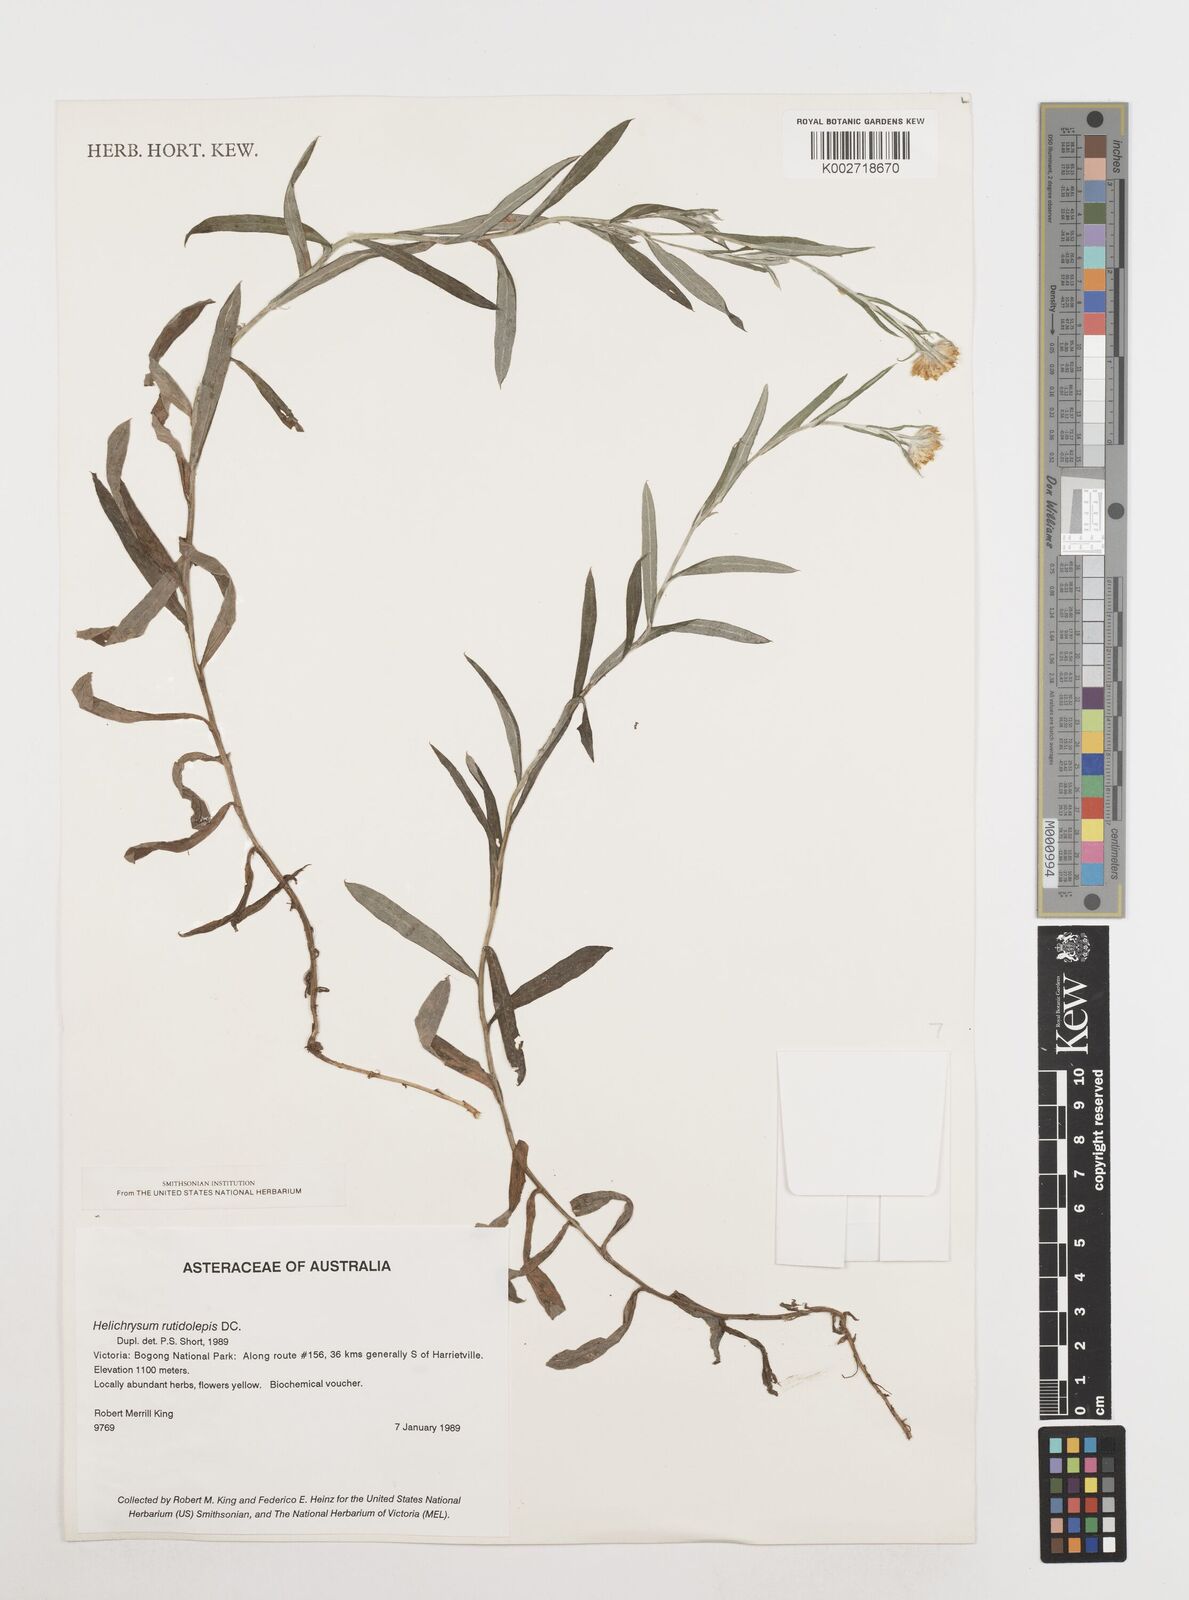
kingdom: Plantae
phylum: Tracheophyta
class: Magnoliopsida
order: Asterales
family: Asteraceae
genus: Coronidium
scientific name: Coronidium rutidolepis
